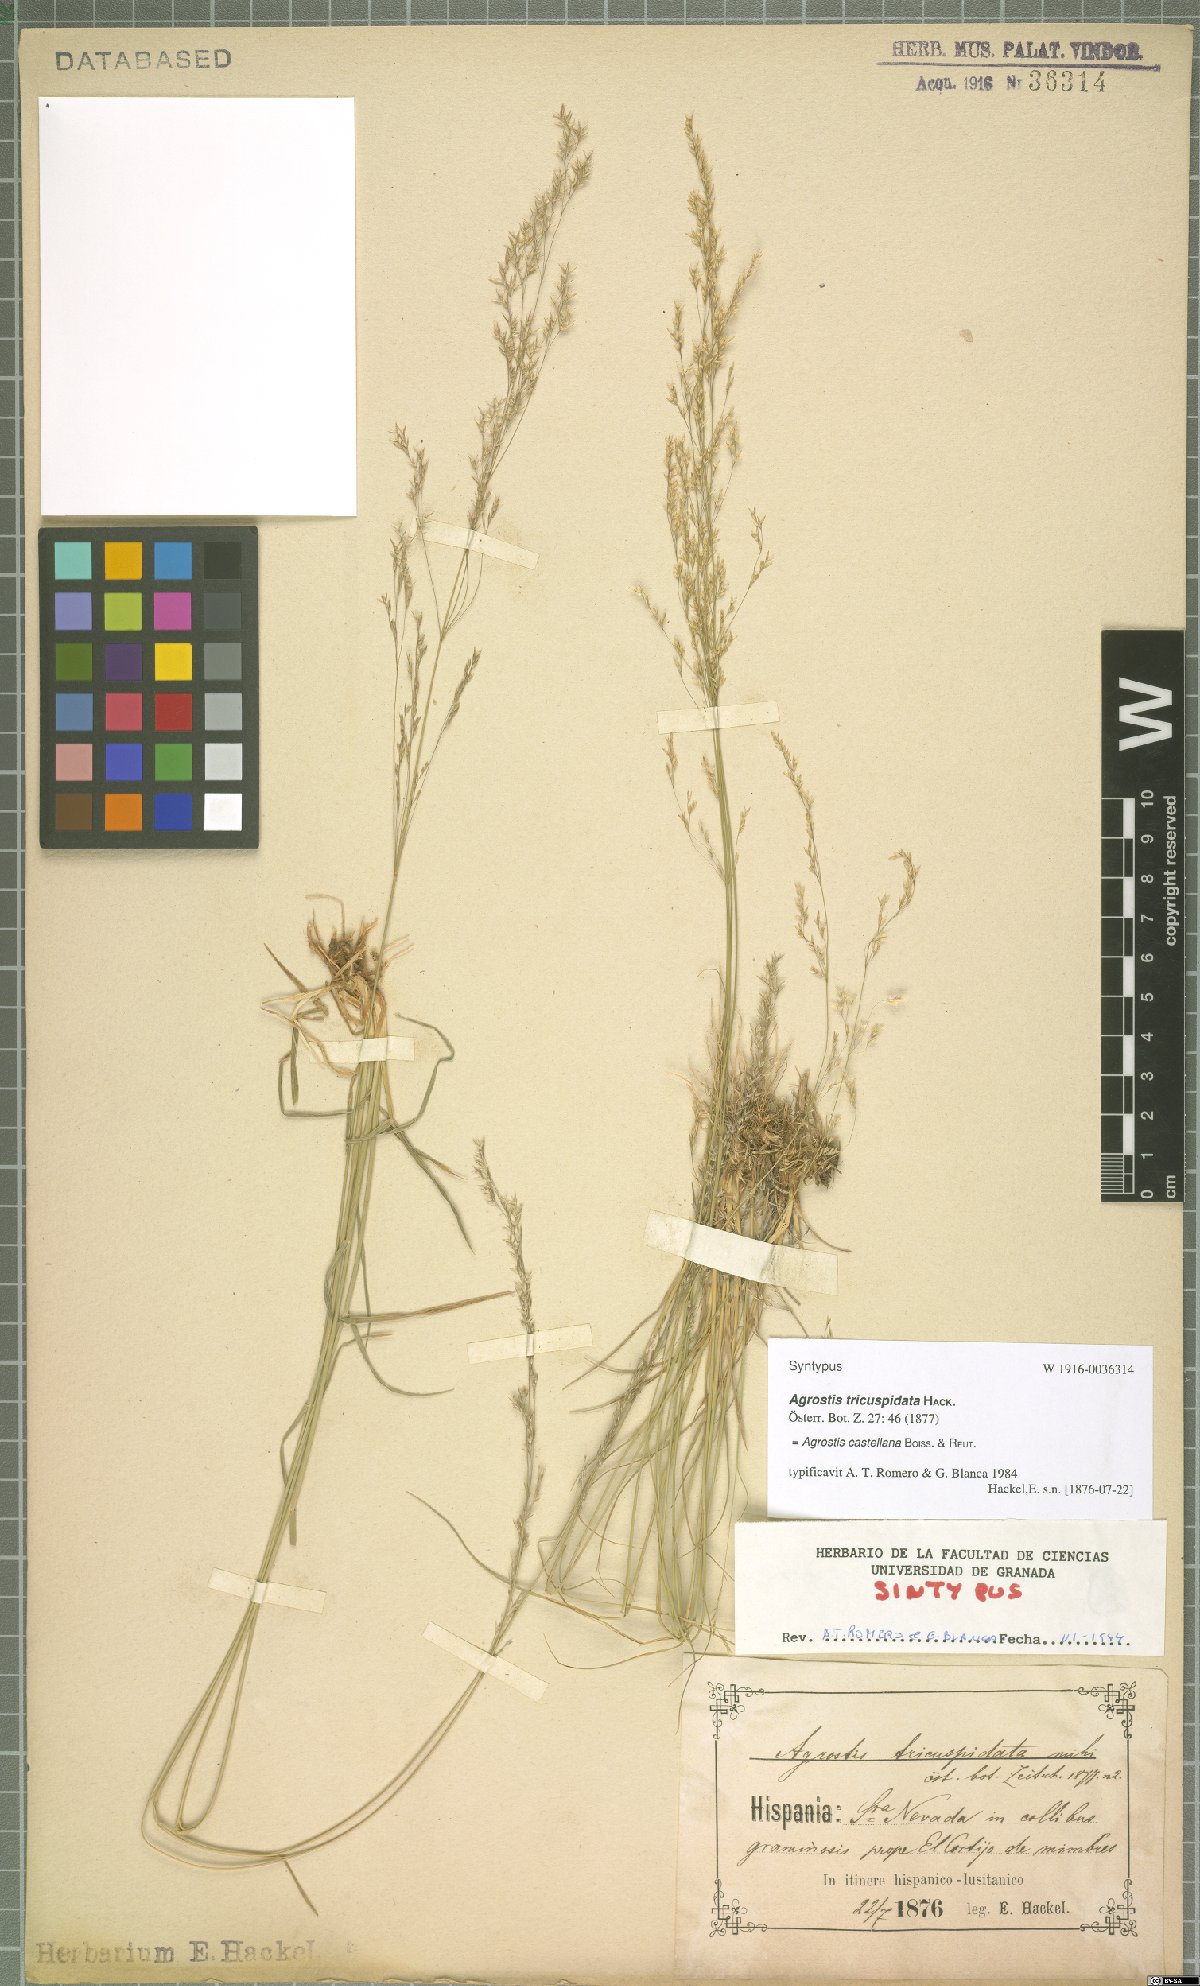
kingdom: Plantae
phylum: Tracheophyta
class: Liliopsida
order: Poales
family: Poaceae
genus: Agrostis
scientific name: Agrostis castellana
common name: Highland bent
